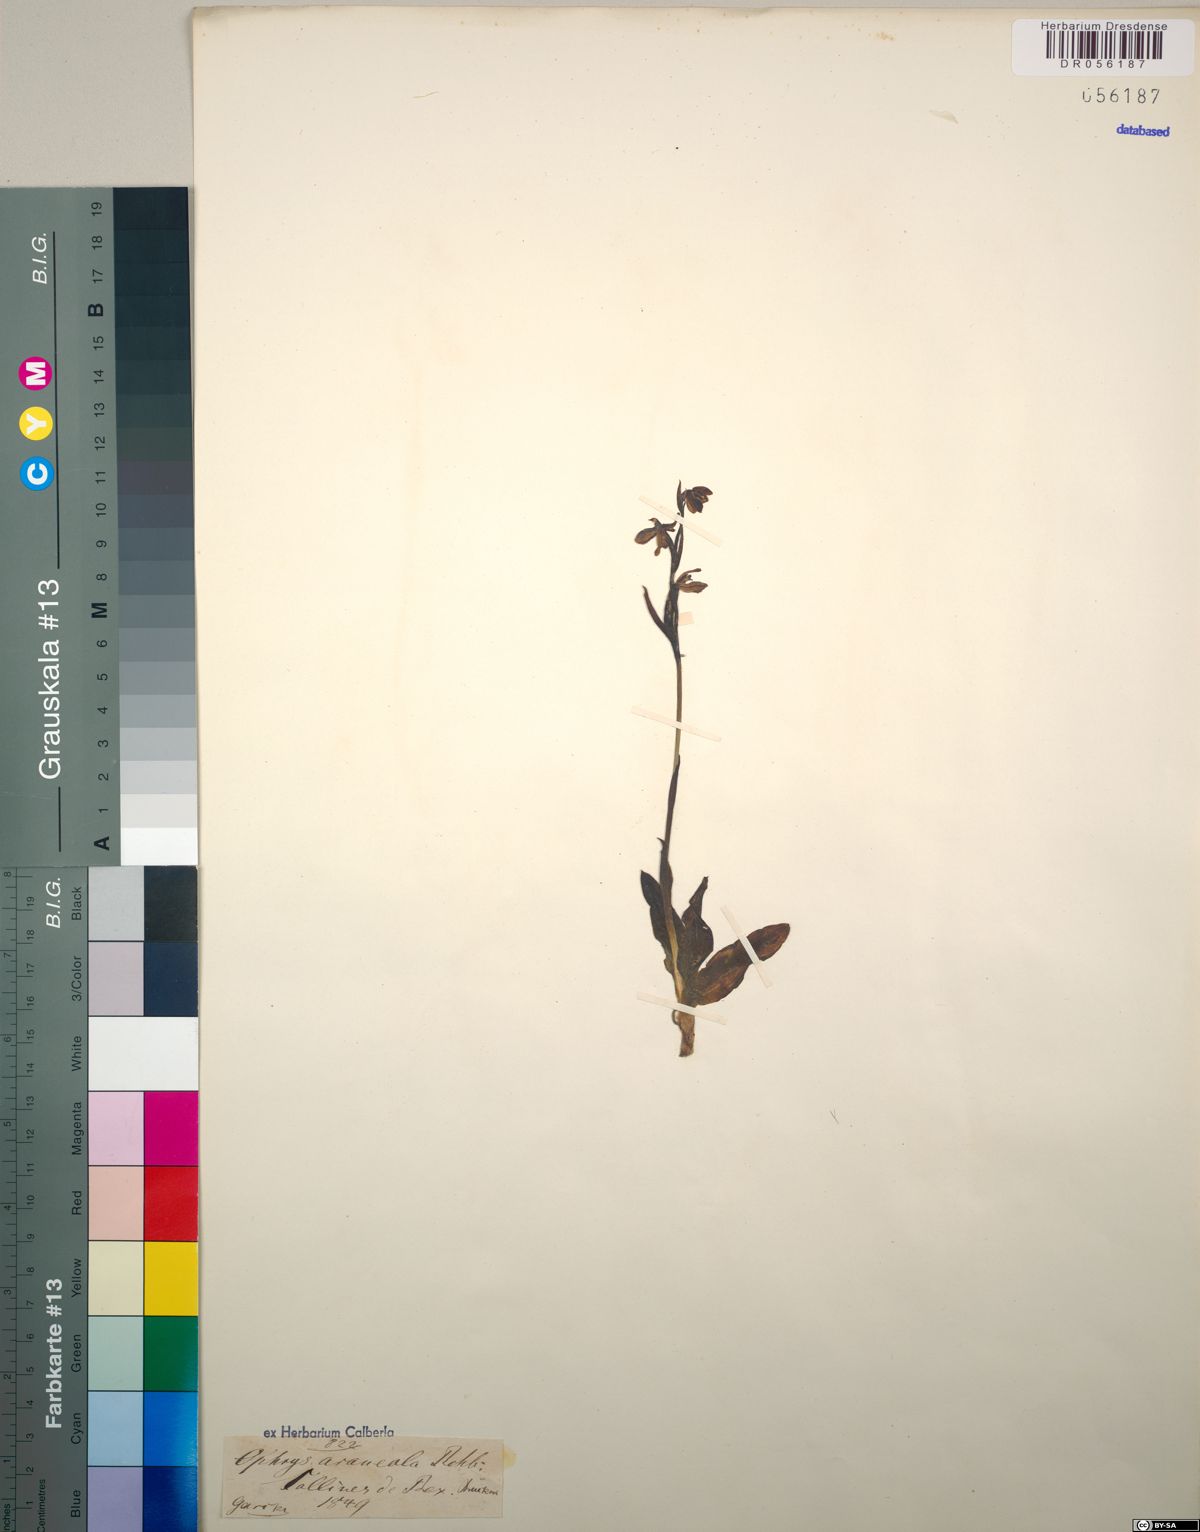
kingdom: Plantae
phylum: Tracheophyta
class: Liliopsida
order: Asparagales
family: Orchidaceae
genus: Ophrys
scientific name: Ophrys sphegodes
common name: Early spider-orchid
